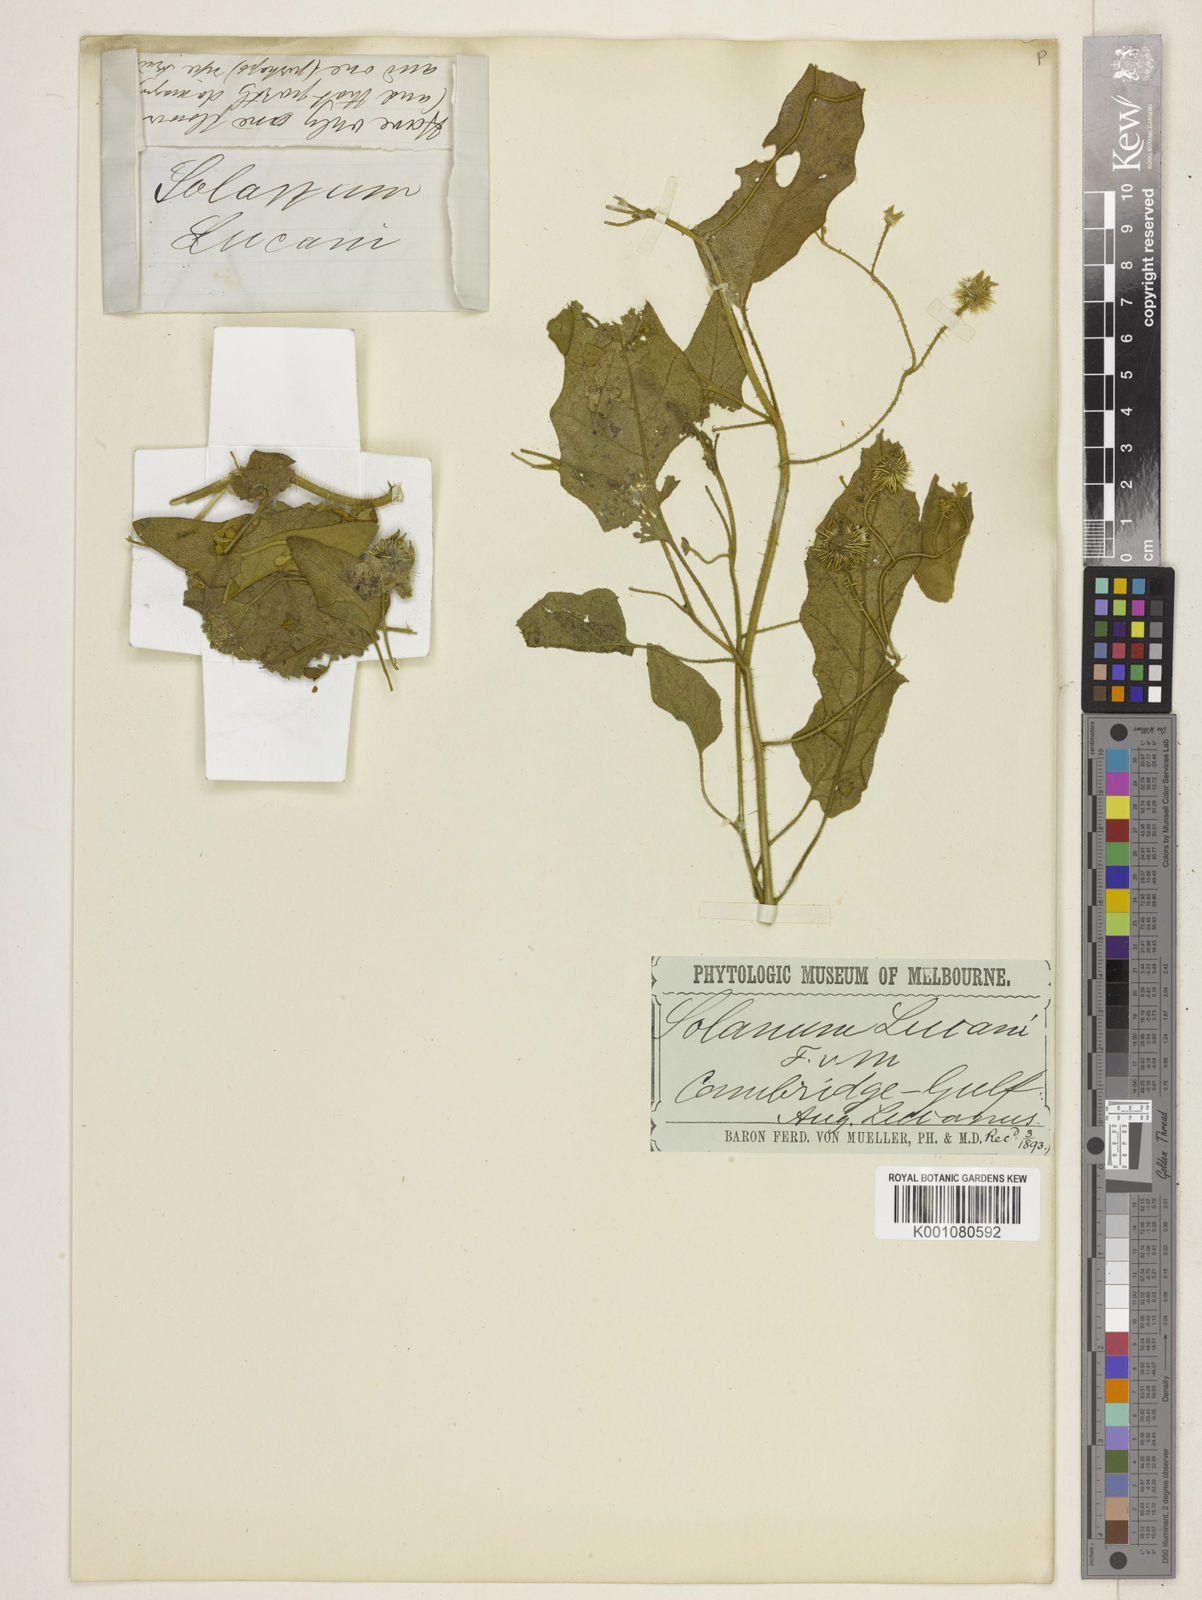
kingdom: Plantae
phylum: Tracheophyta
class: Magnoliopsida
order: Solanales
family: Solanaceae
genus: Solanum
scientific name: Solanum lucani
